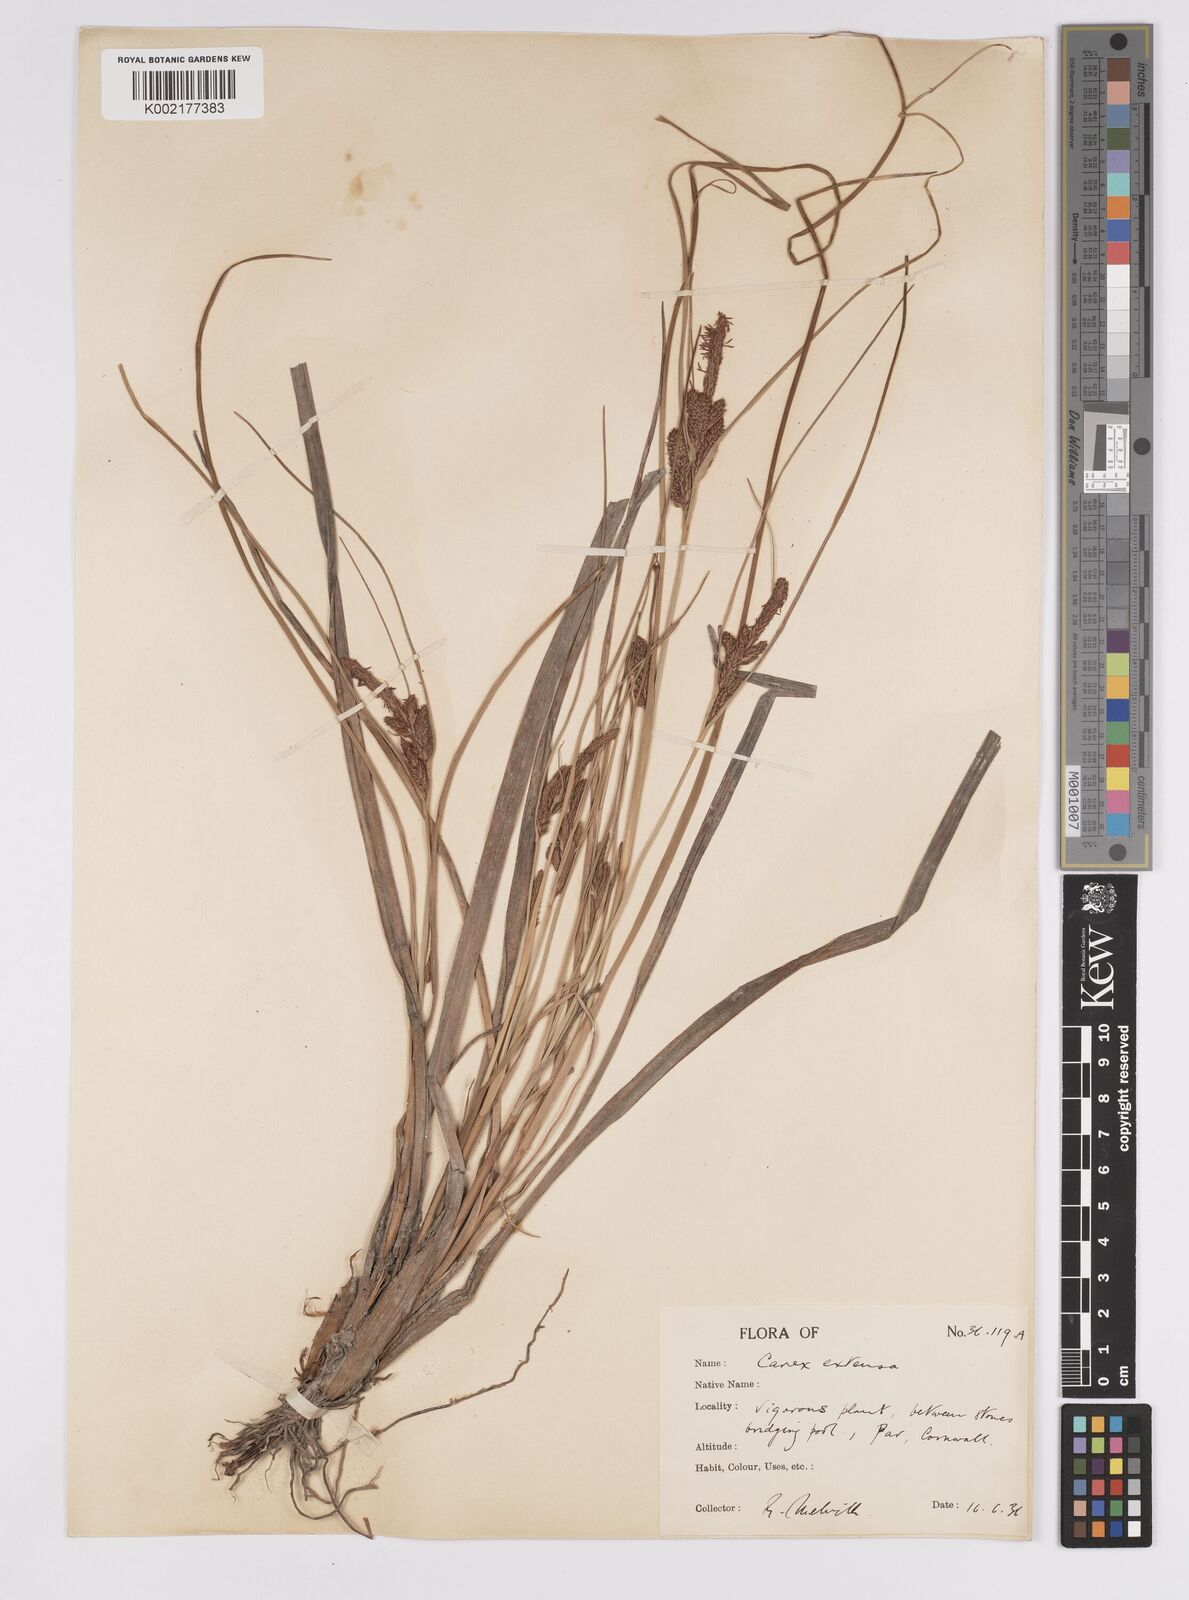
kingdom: Plantae
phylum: Tracheophyta
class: Liliopsida
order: Poales
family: Cyperaceae
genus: Carex
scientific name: Carex extensa
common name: Long-bracted sedge
